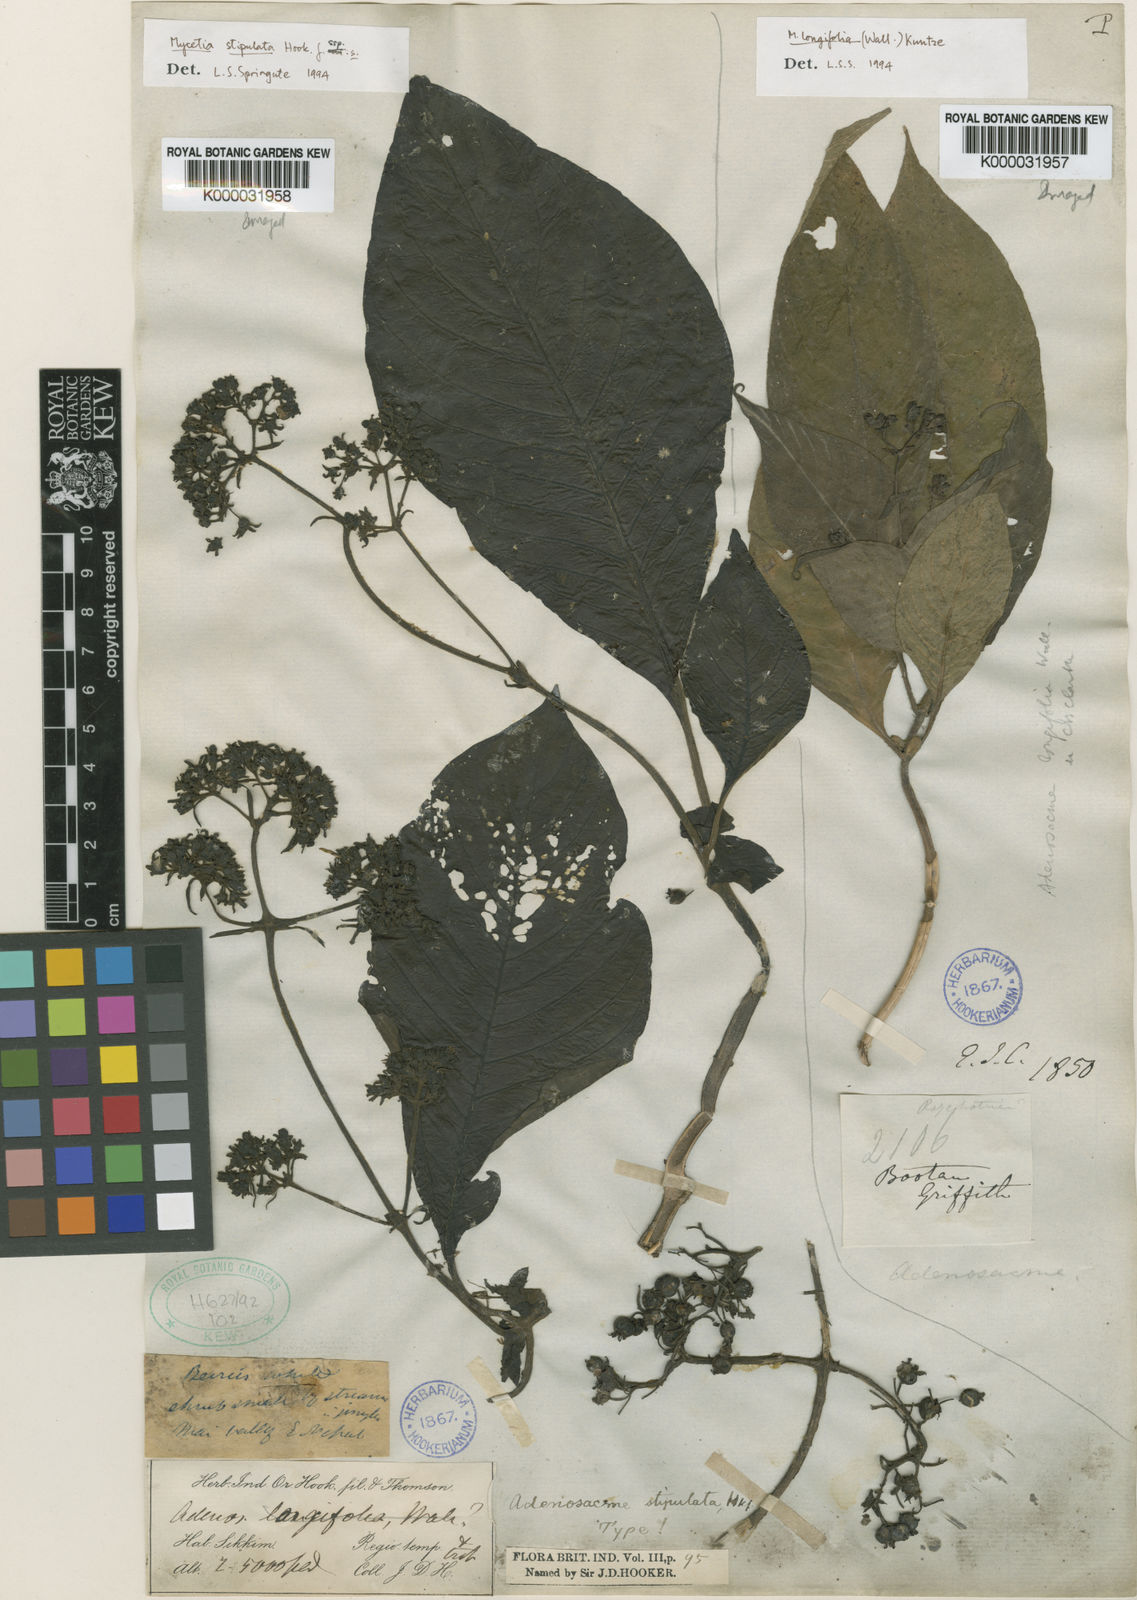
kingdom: Plantae
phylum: Tracheophyta
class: Magnoliopsida
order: Gentianales
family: Rubiaceae
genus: Mycetia
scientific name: Mycetia stipulata
